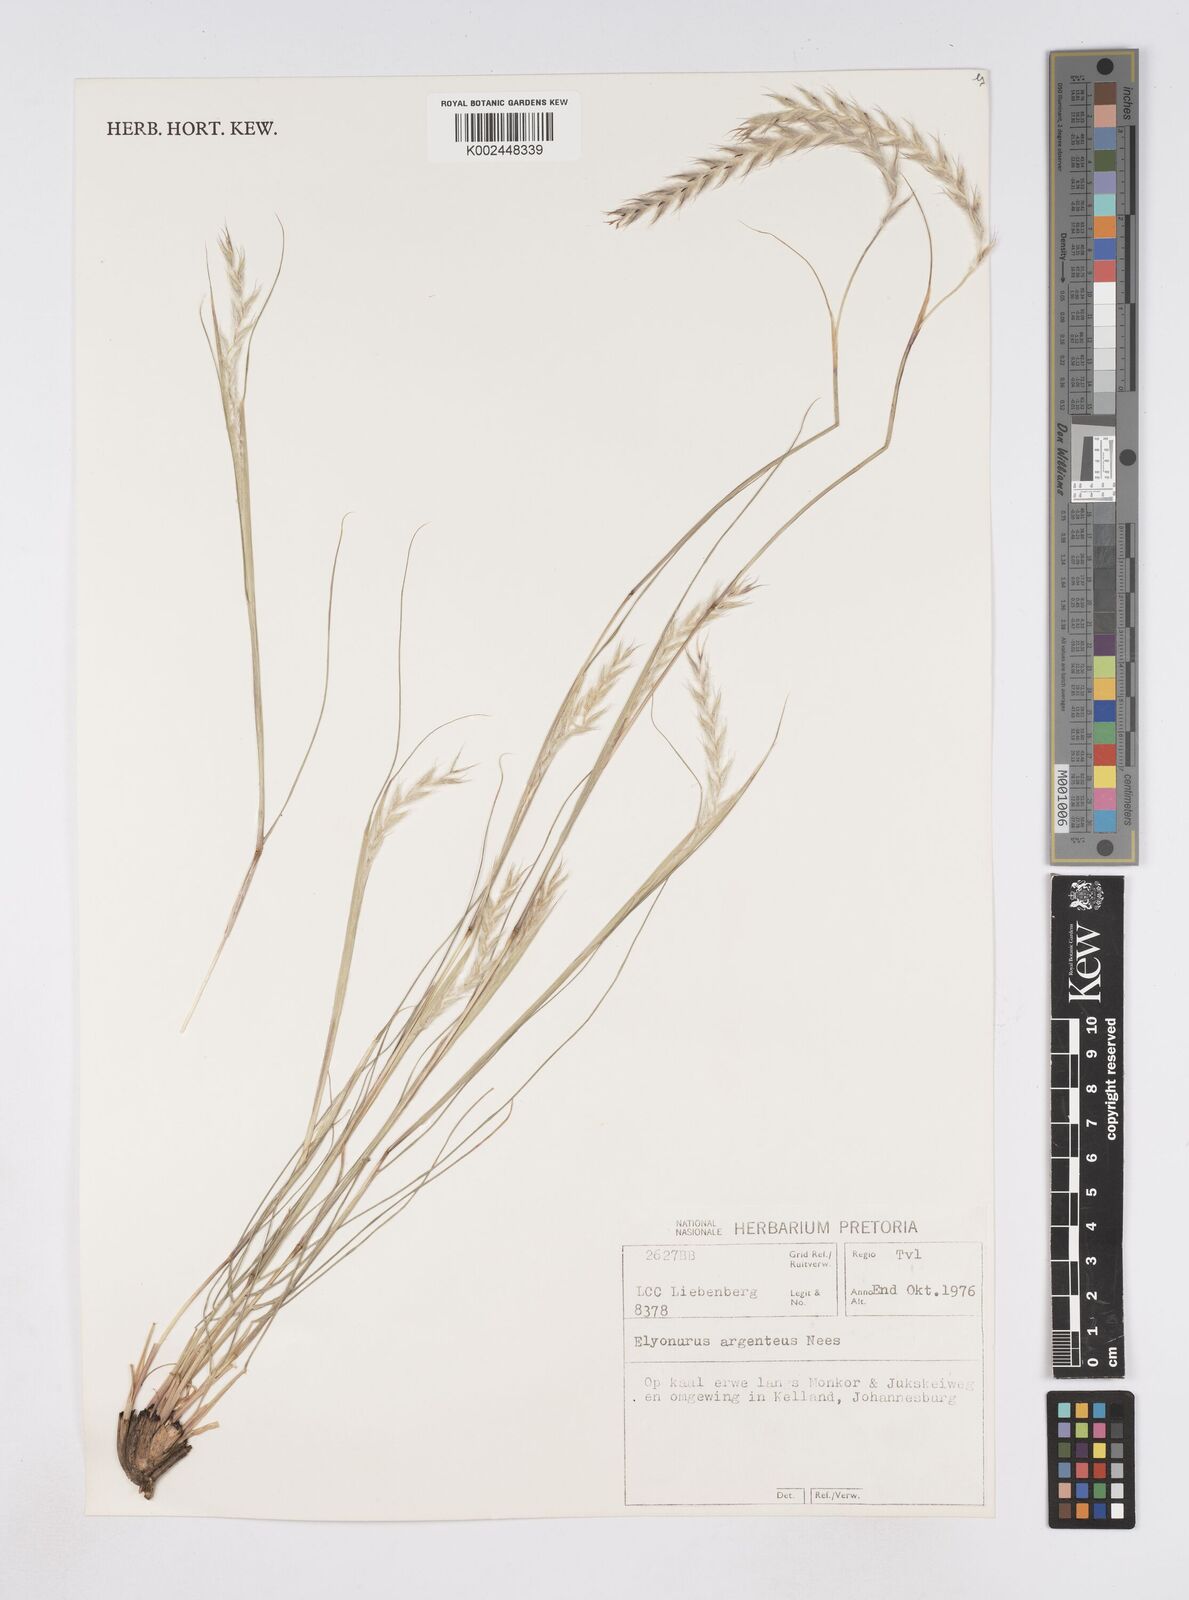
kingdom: Plantae
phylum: Tracheophyta
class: Liliopsida
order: Poales
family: Poaceae
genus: Elionurus
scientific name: Elionurus muticus
